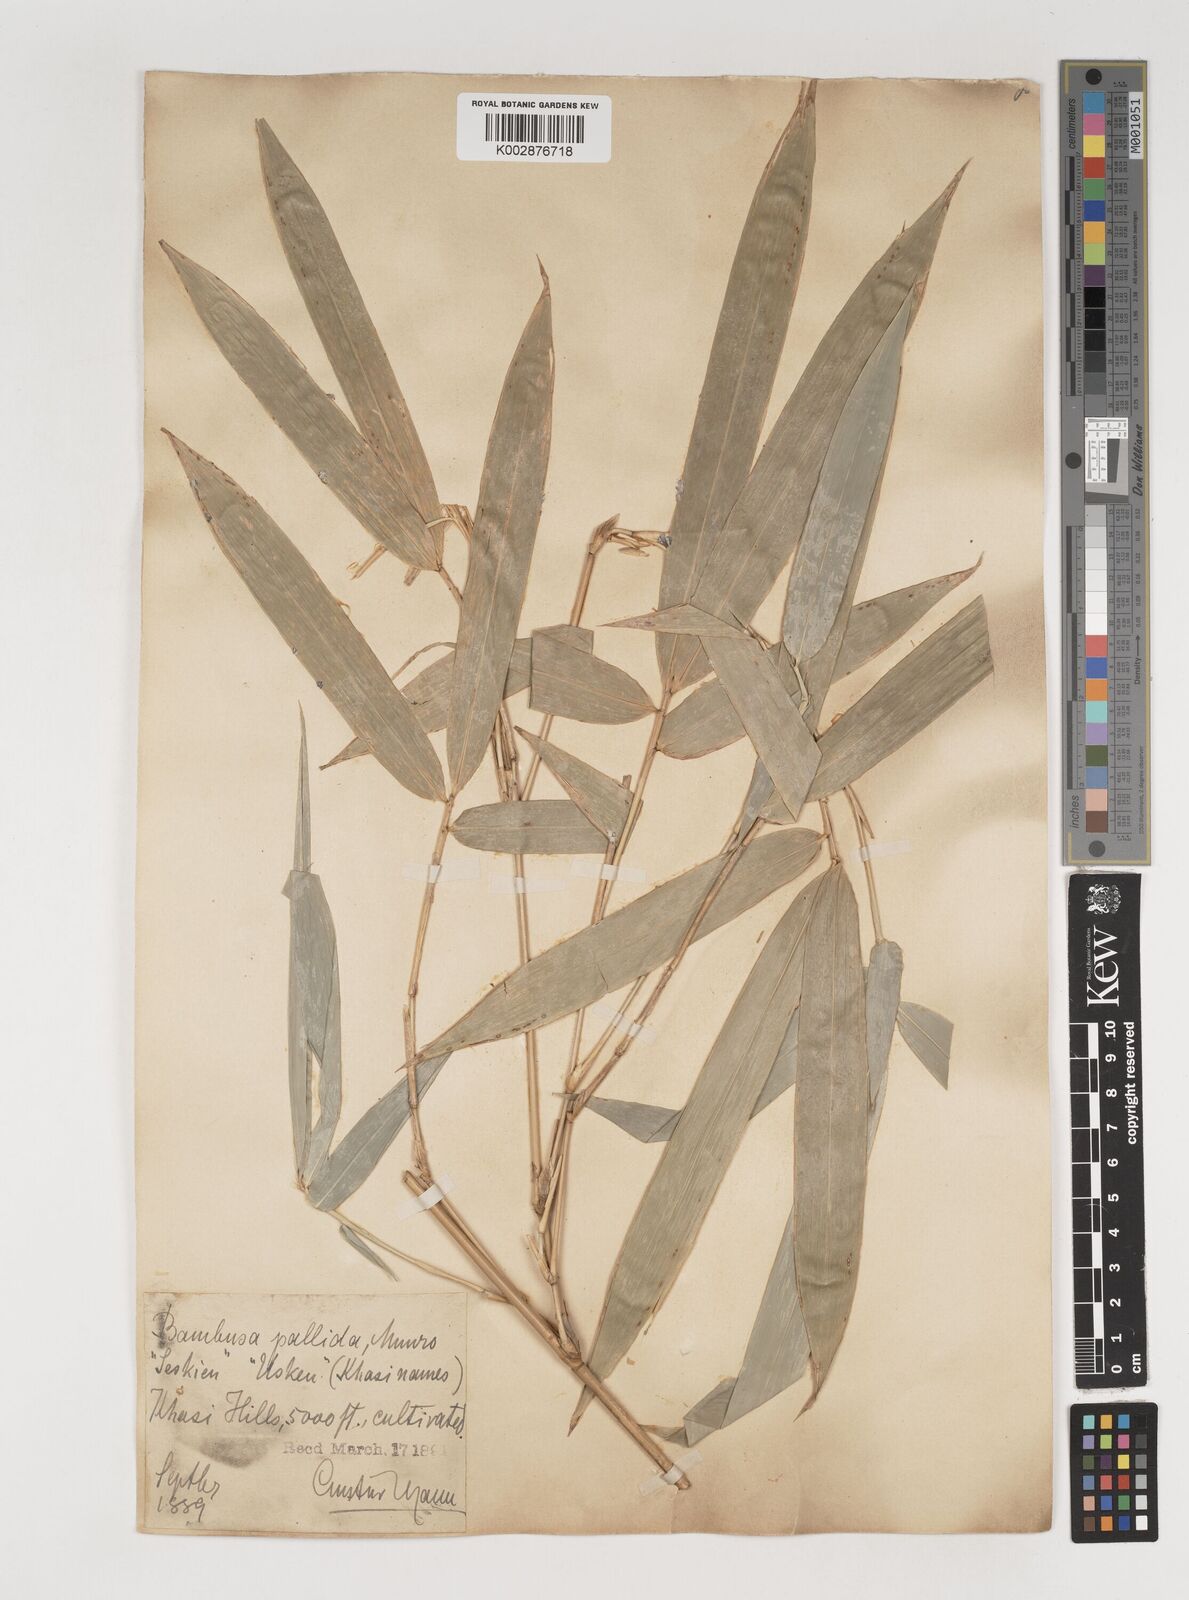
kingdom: Plantae
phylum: Tracheophyta
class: Liliopsida
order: Poales
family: Poaceae
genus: Bambusa
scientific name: Bambusa pallida
